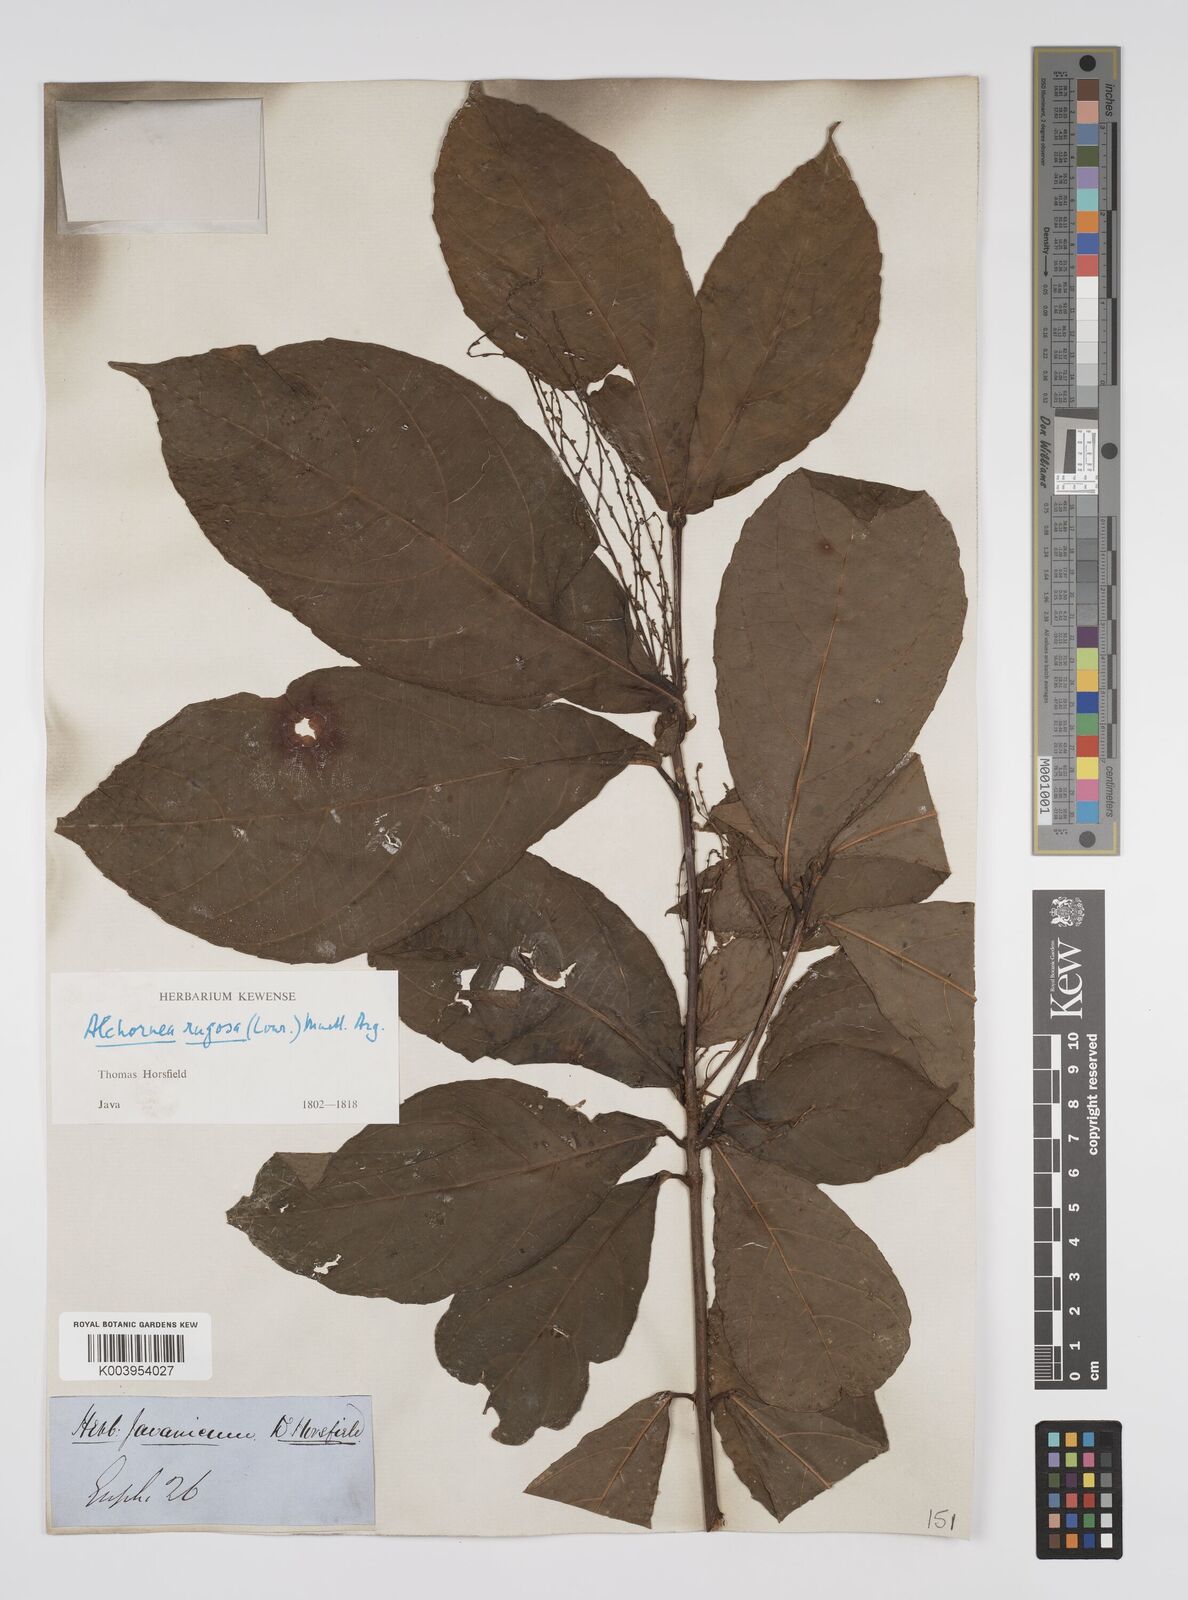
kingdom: Plantae
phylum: Tracheophyta
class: Magnoliopsida
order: Malpighiales
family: Euphorbiaceae
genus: Alchornea
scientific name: Alchornea rugosa
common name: Alchorntree
